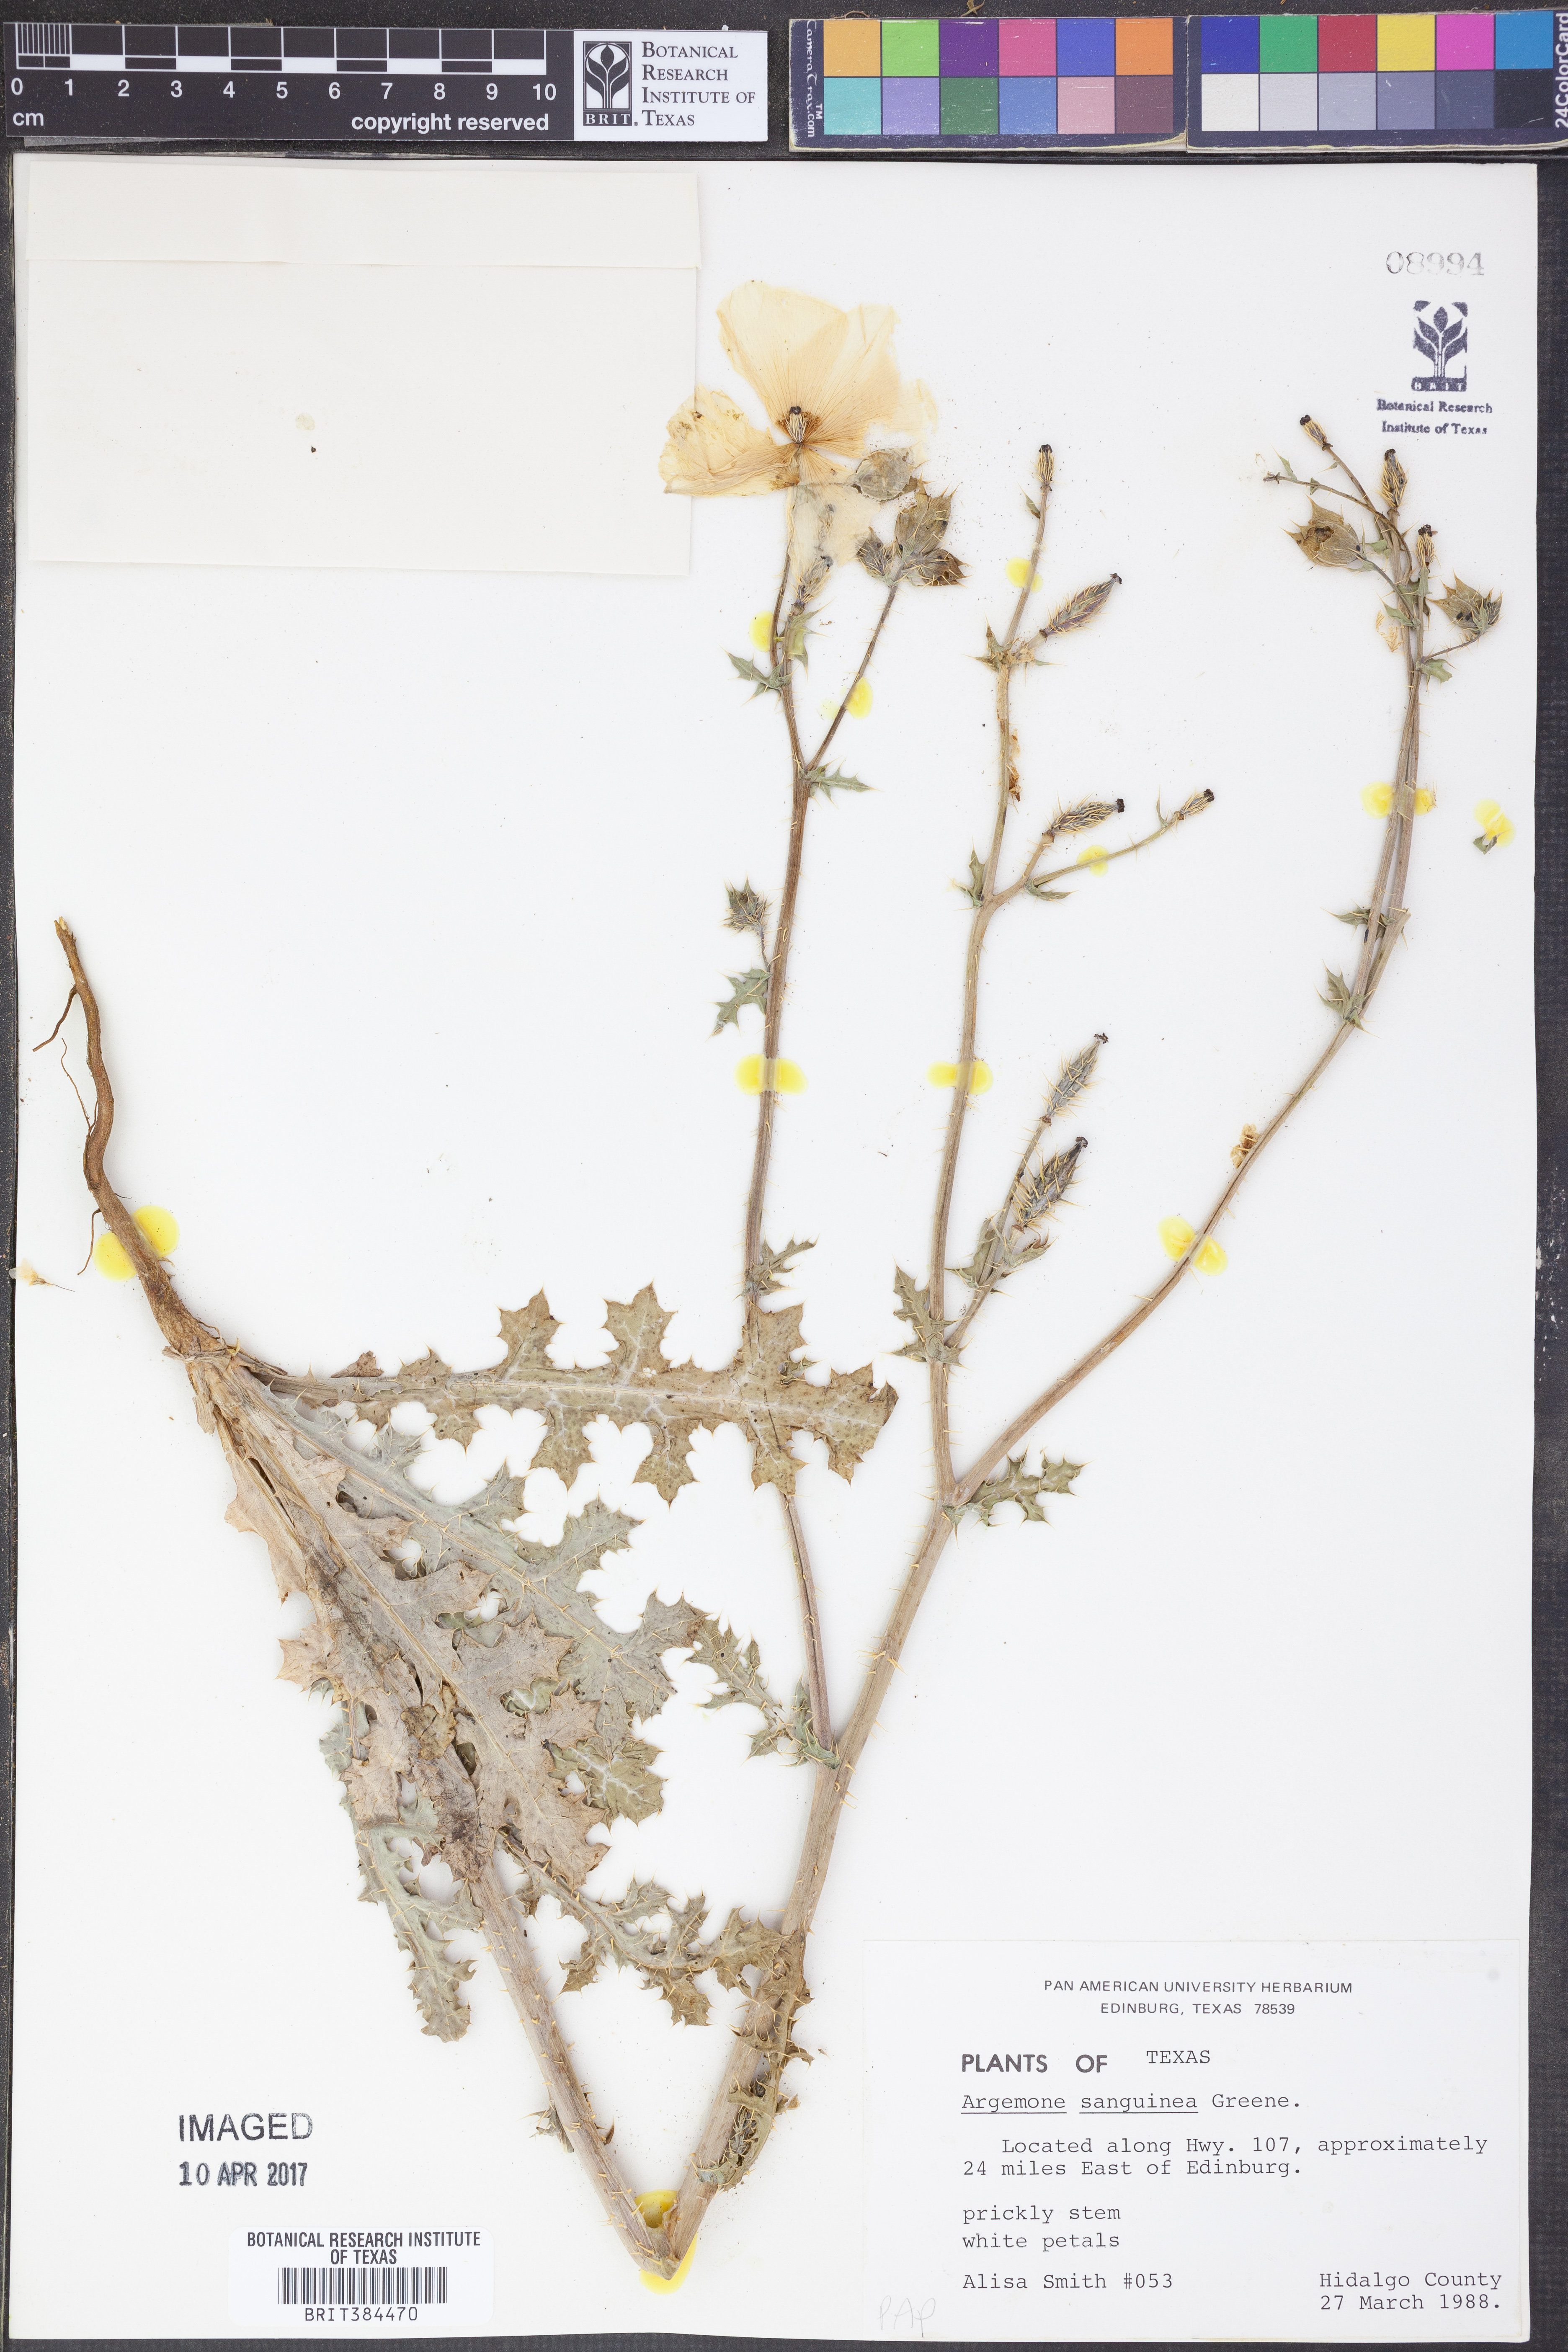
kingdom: Plantae
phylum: Tracheophyta
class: Magnoliopsida
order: Ranunculales
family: Papaveraceae
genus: Argemone
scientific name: Argemone sanguinea
